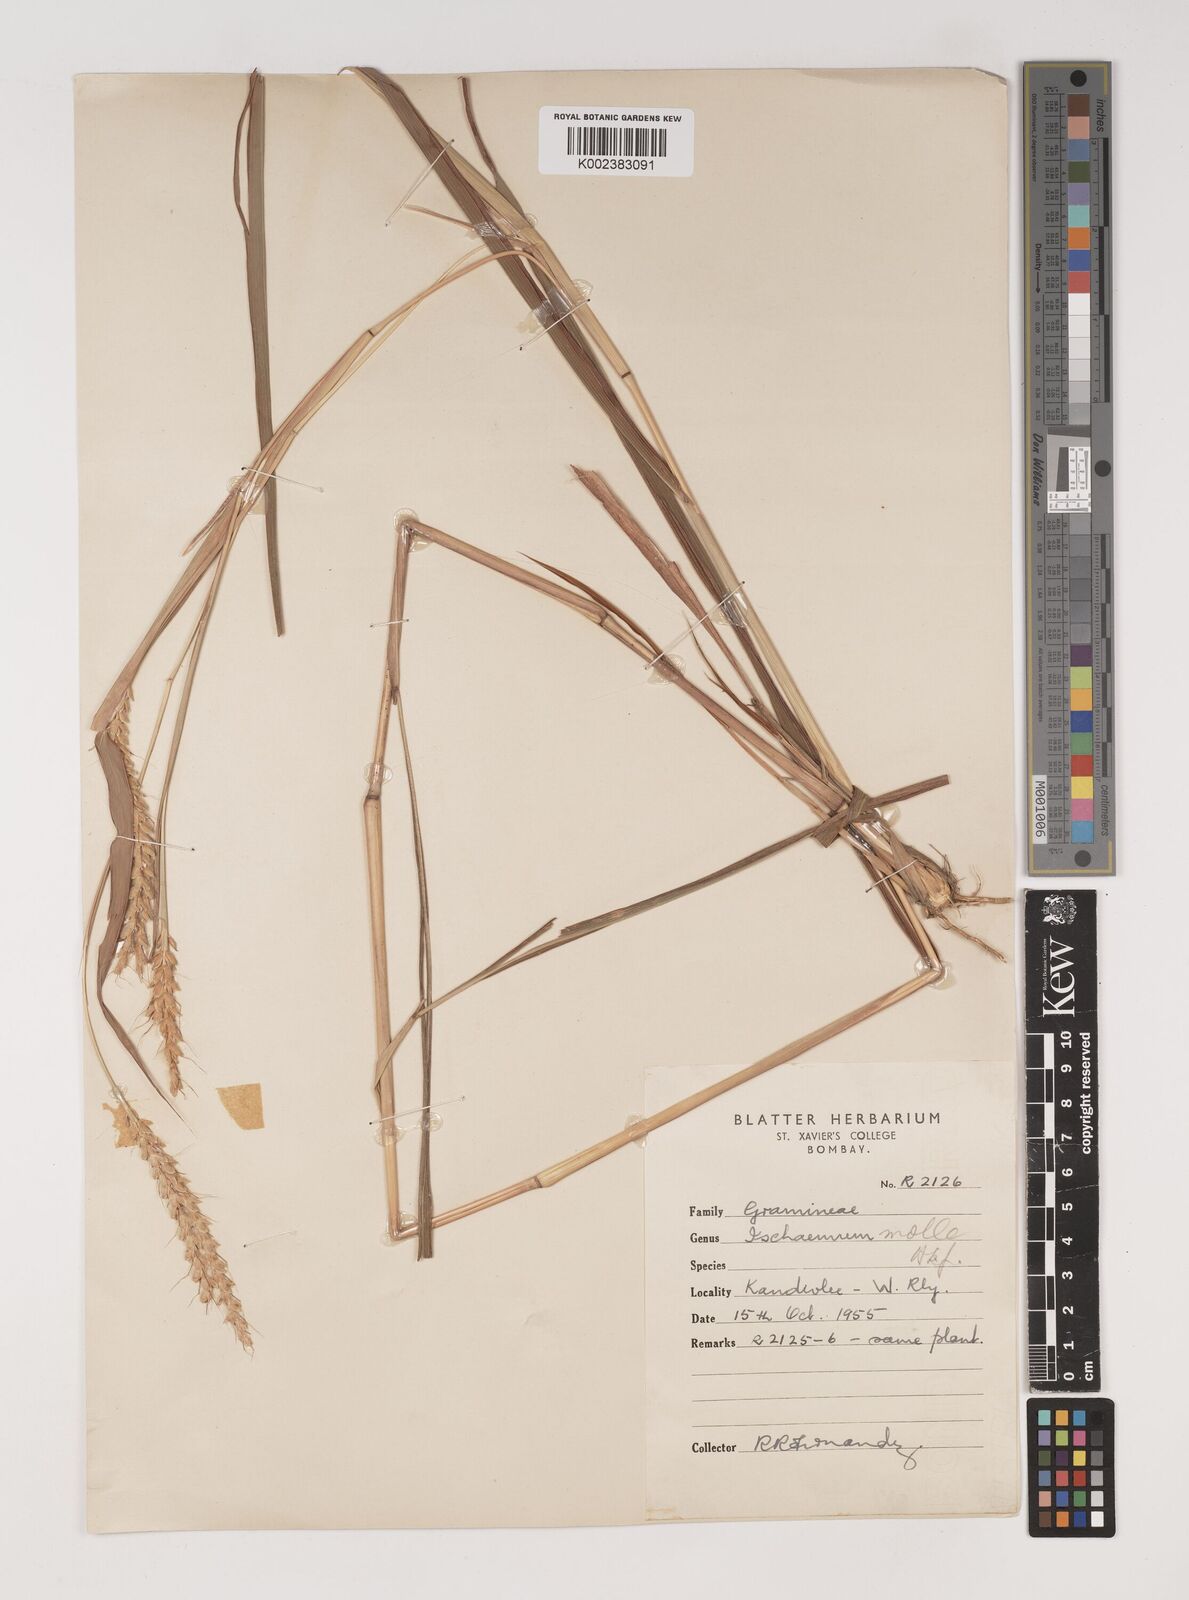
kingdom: Plantae
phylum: Tracheophyta
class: Liliopsida
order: Poales
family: Poaceae
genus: Ischaemum
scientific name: Ischaemum molle
